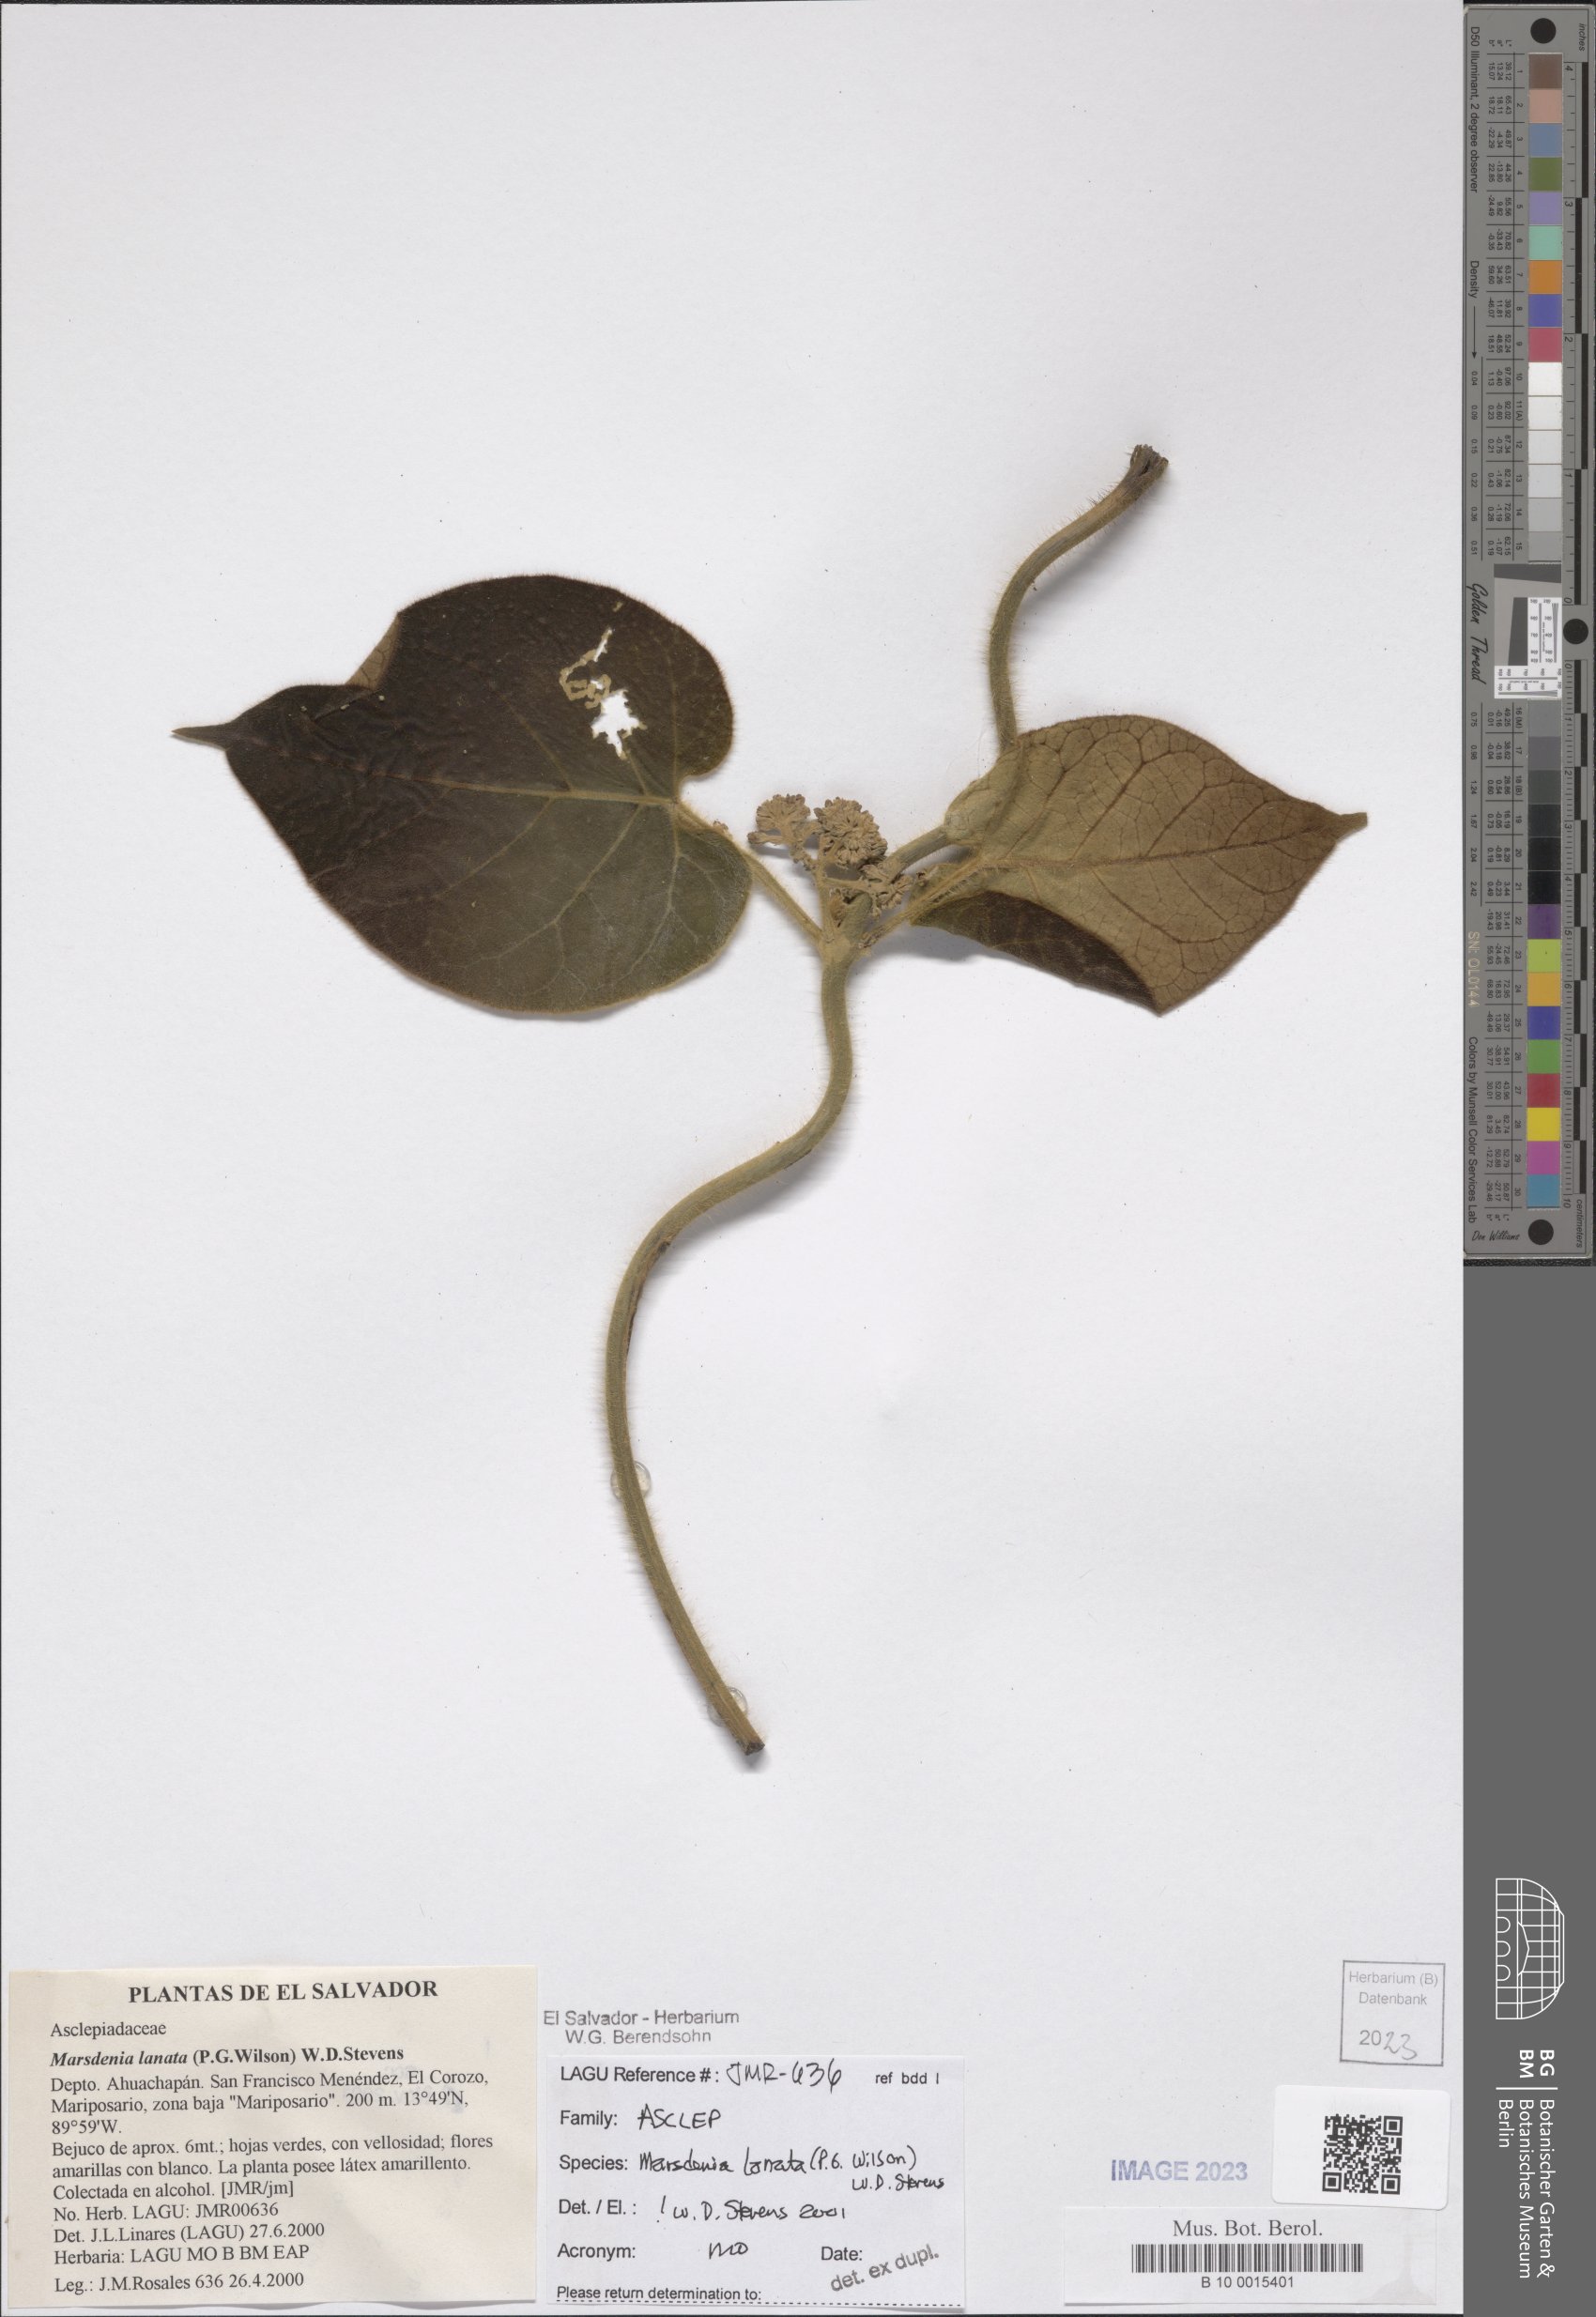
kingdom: Plantae
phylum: Tracheophyta
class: Magnoliopsida
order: Gentianales
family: Apocynaceae
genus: Ruehssia
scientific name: Ruehssia lanata
